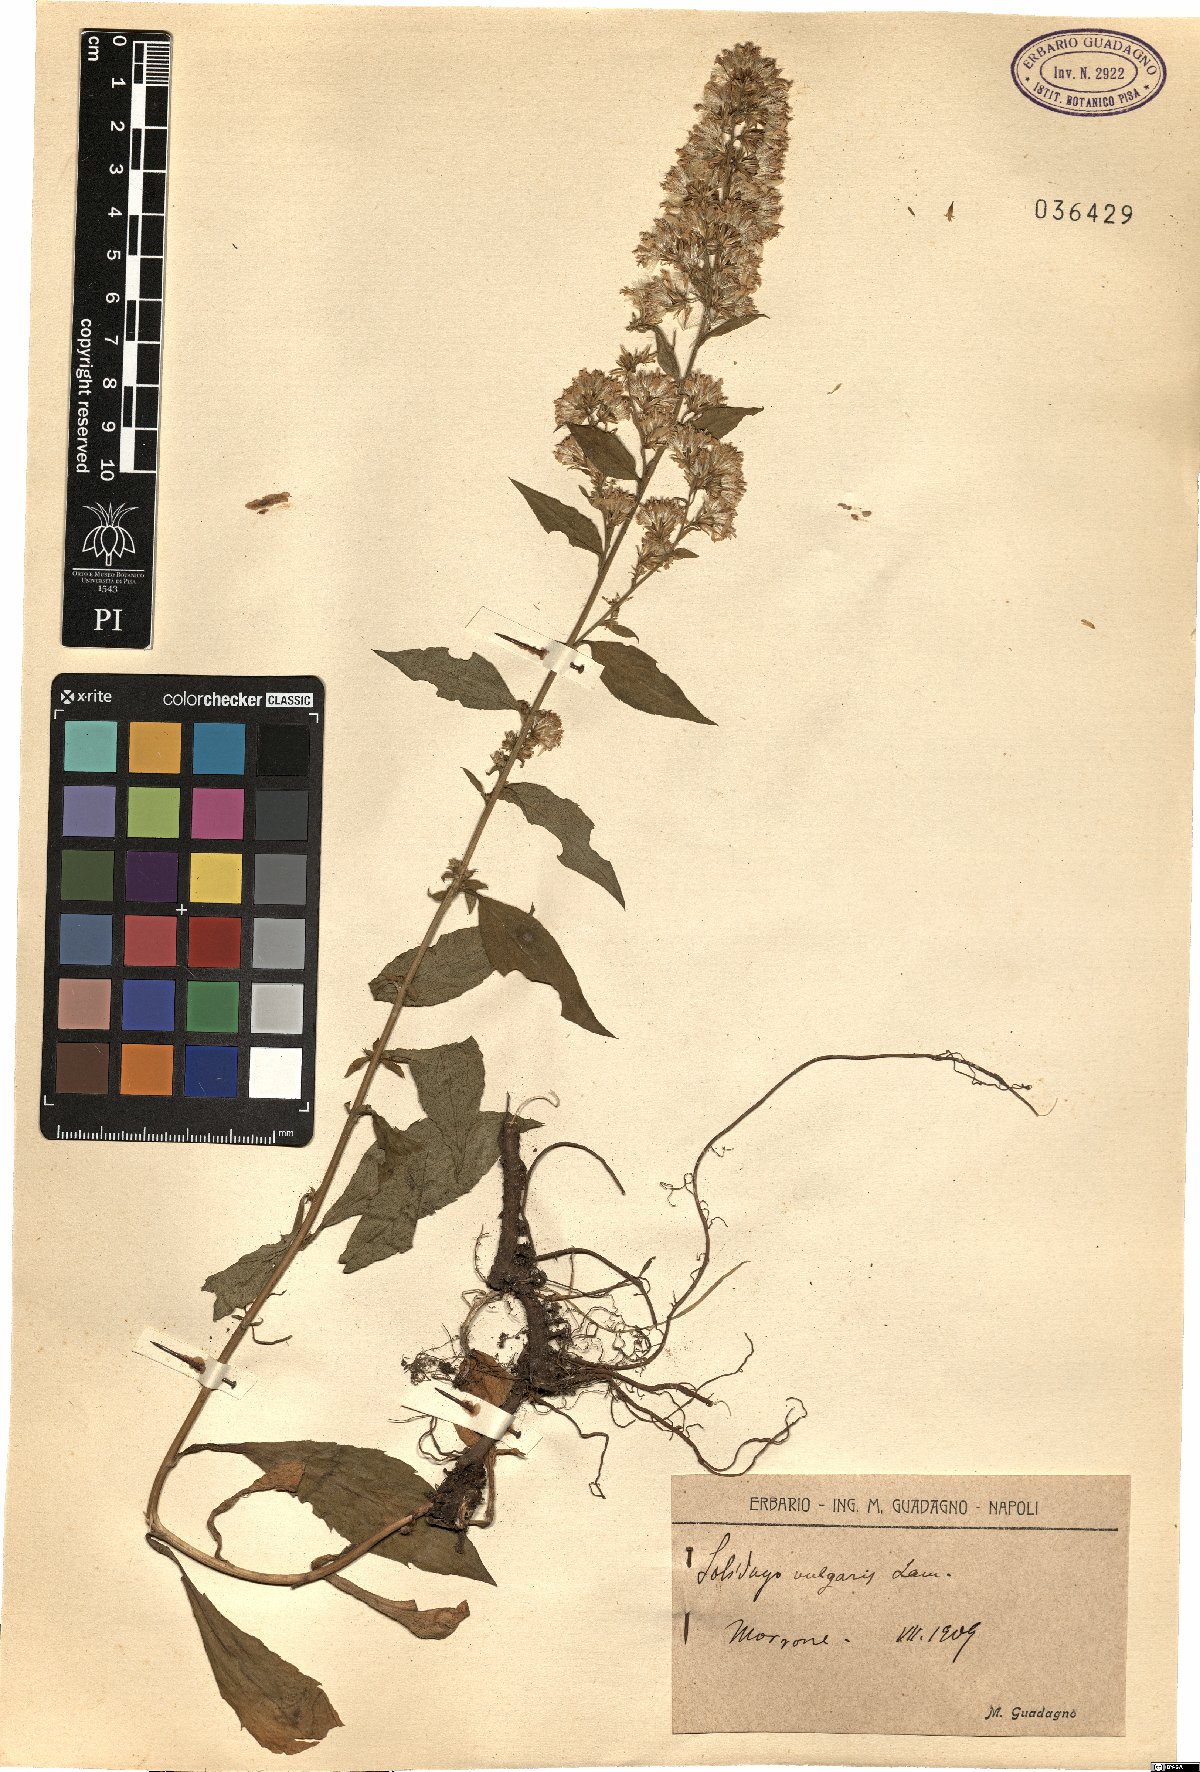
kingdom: Plantae
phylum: Tracheophyta
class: Magnoliopsida
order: Asterales
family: Asteraceae
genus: Solidago
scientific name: Solidago virgaurea
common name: Goldenrod
